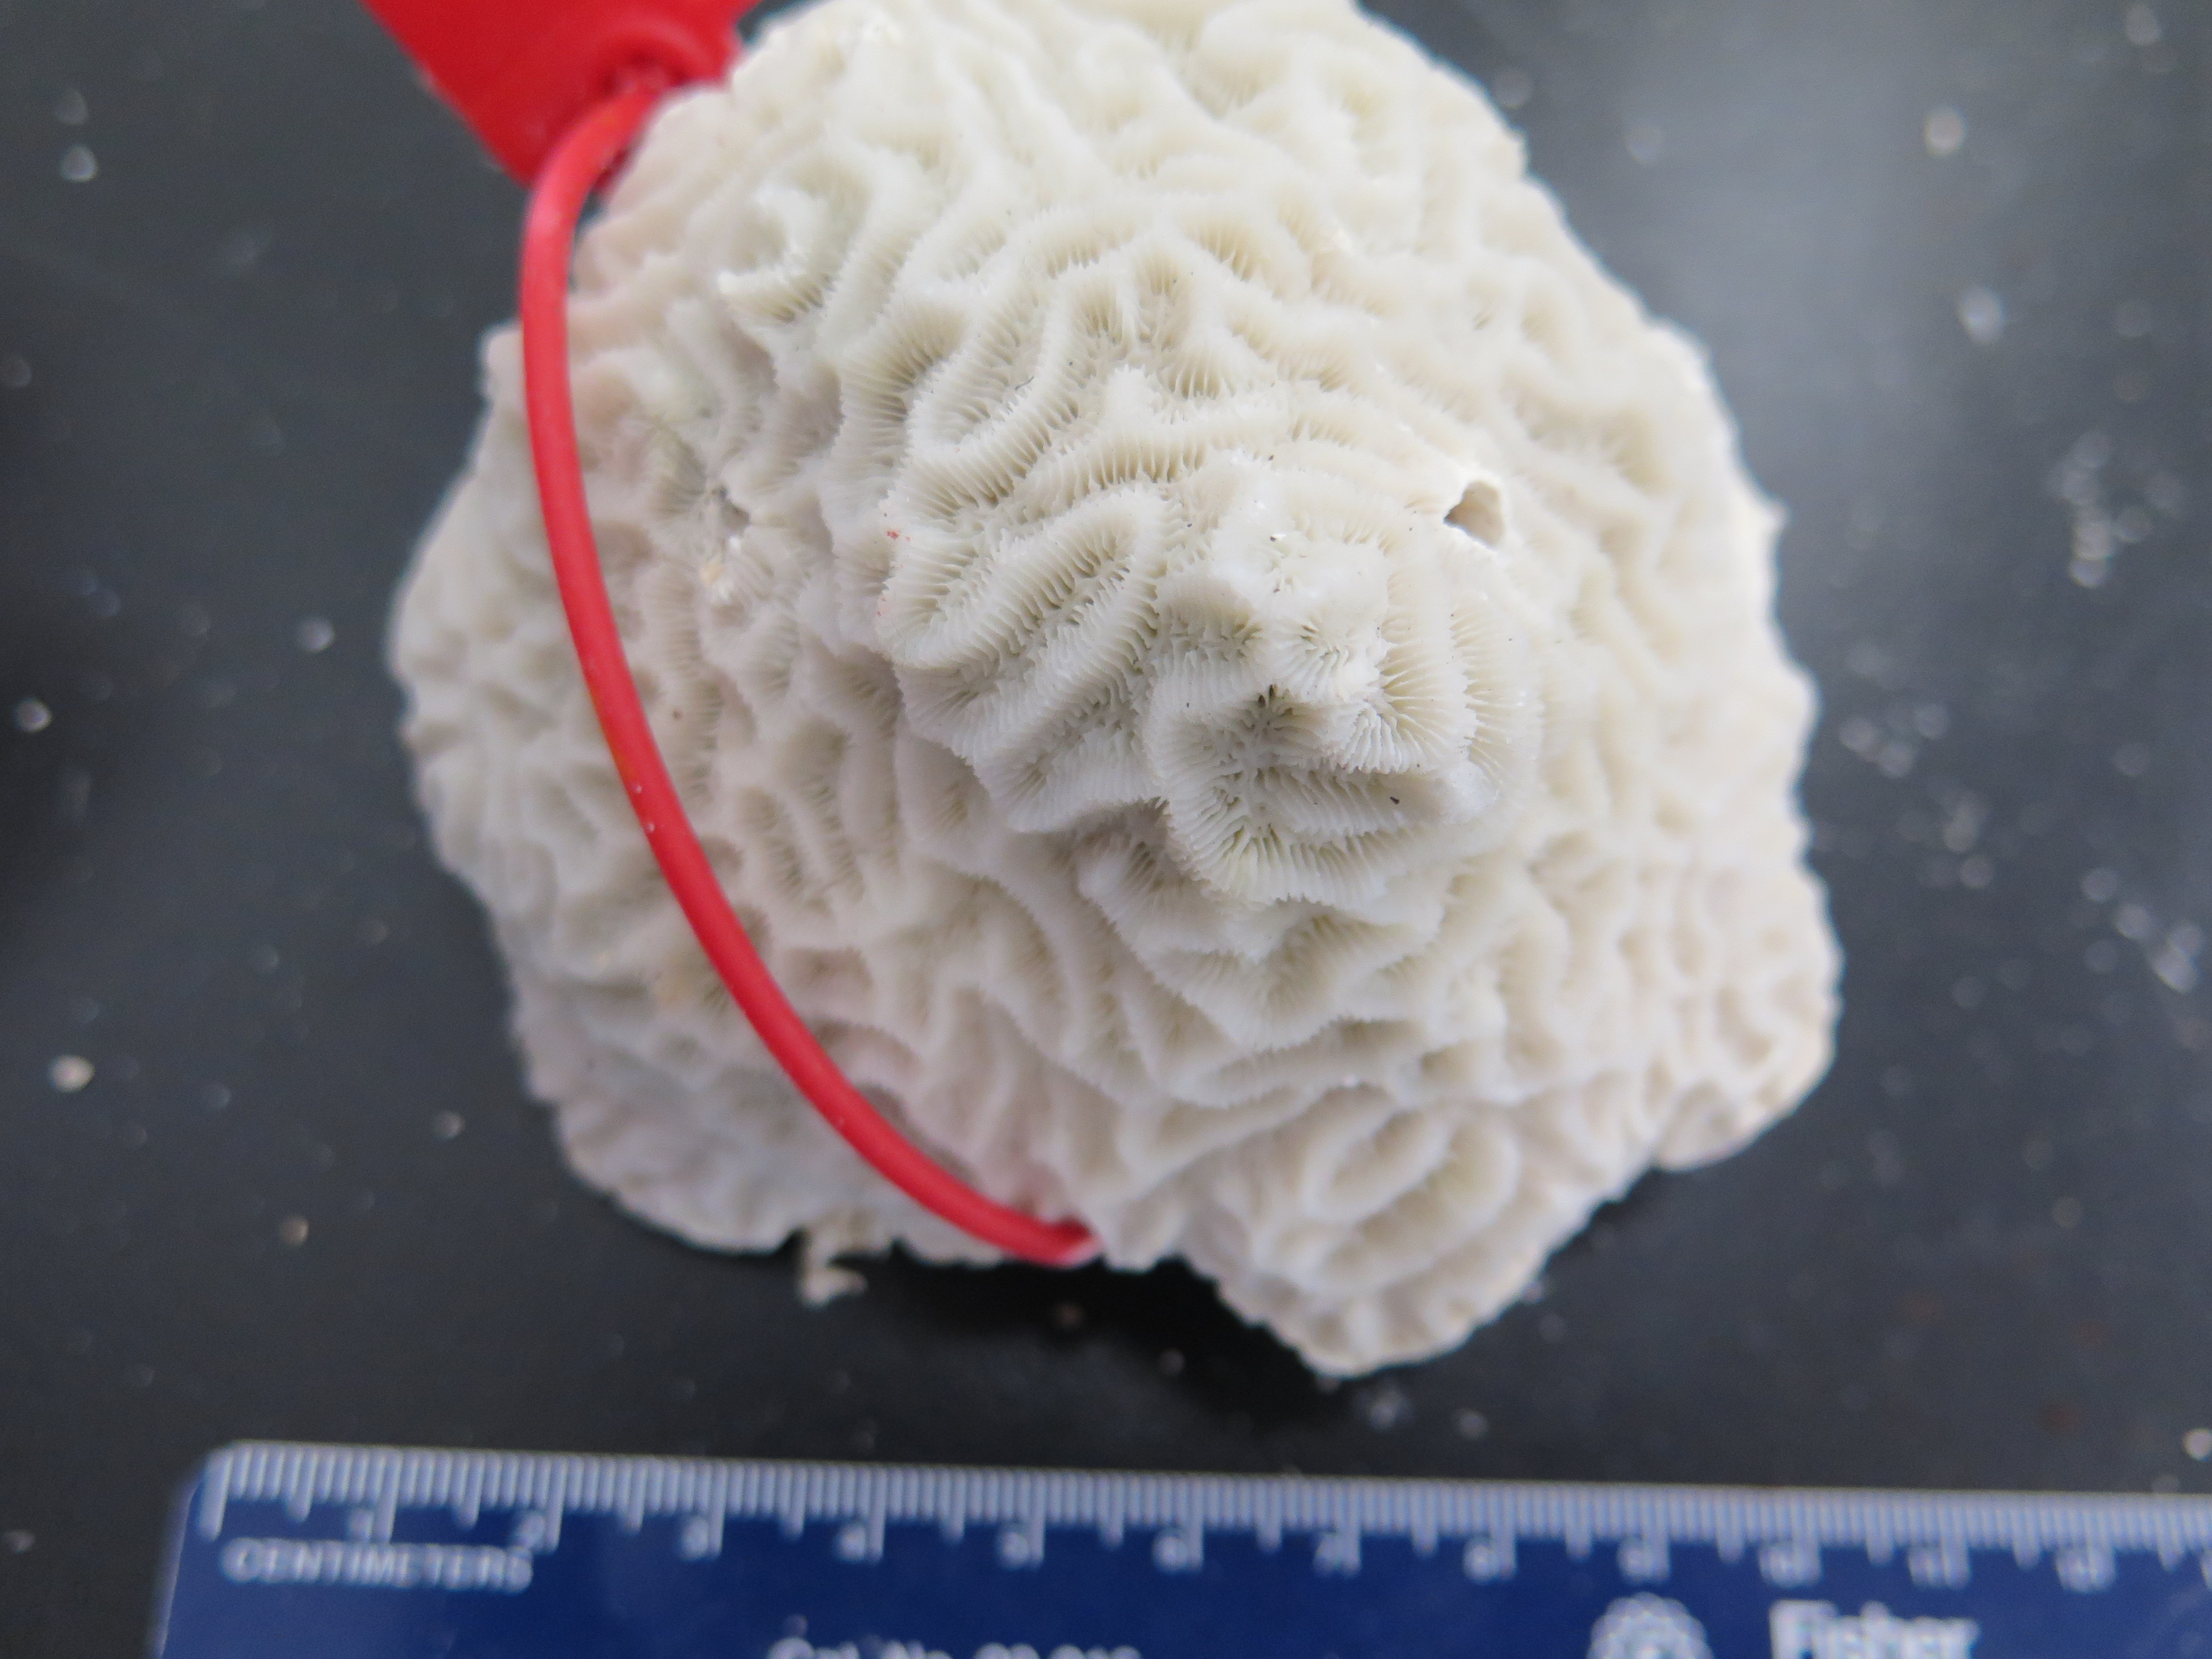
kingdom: Animalia
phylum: Cnidaria
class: Anthozoa
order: Scleractinia
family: Faviidae
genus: Pseudodiploria
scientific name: Pseudodiploria clivosa
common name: Knobby brain coral
